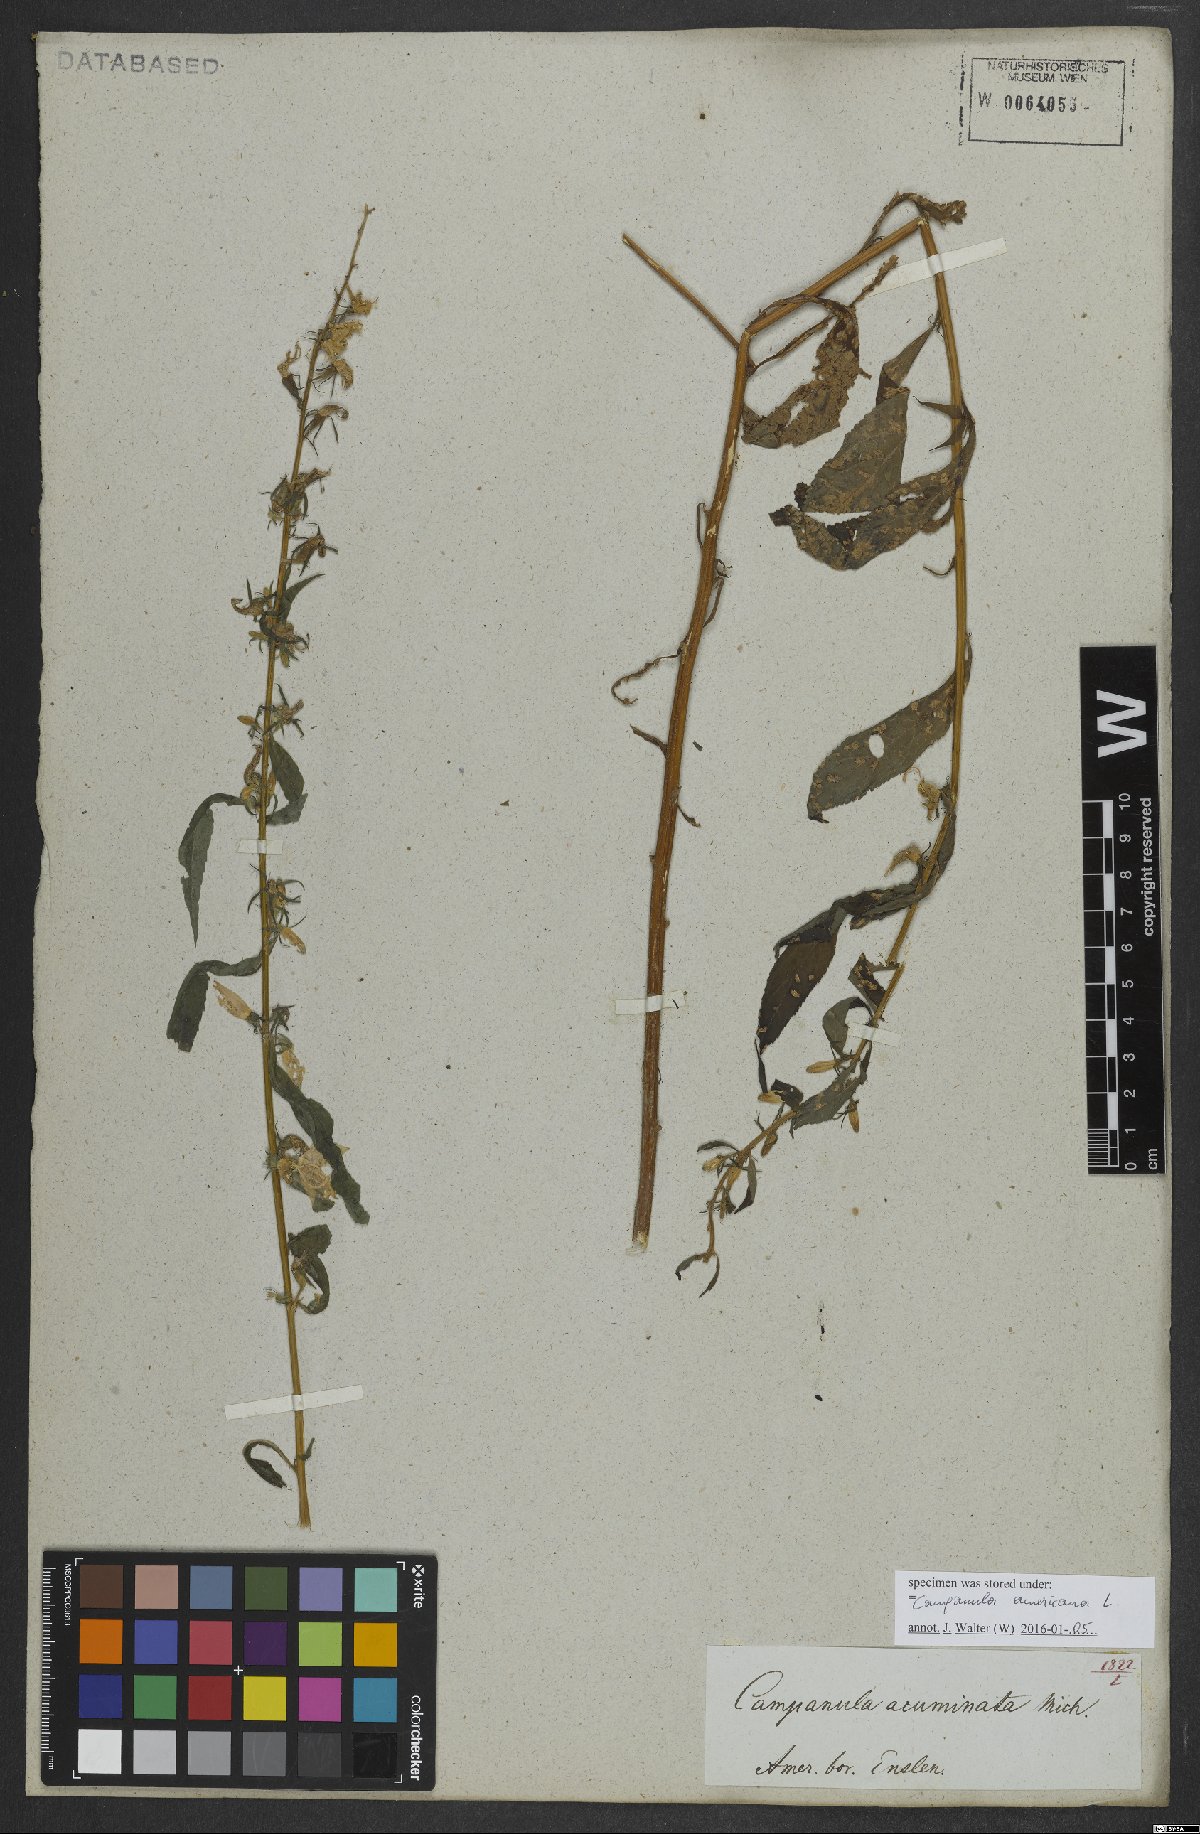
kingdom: Plantae
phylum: Tracheophyta
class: Magnoliopsida
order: Asterales
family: Campanulaceae
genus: Campanulastrum
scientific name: Campanulastrum americanum
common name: American bellflower
